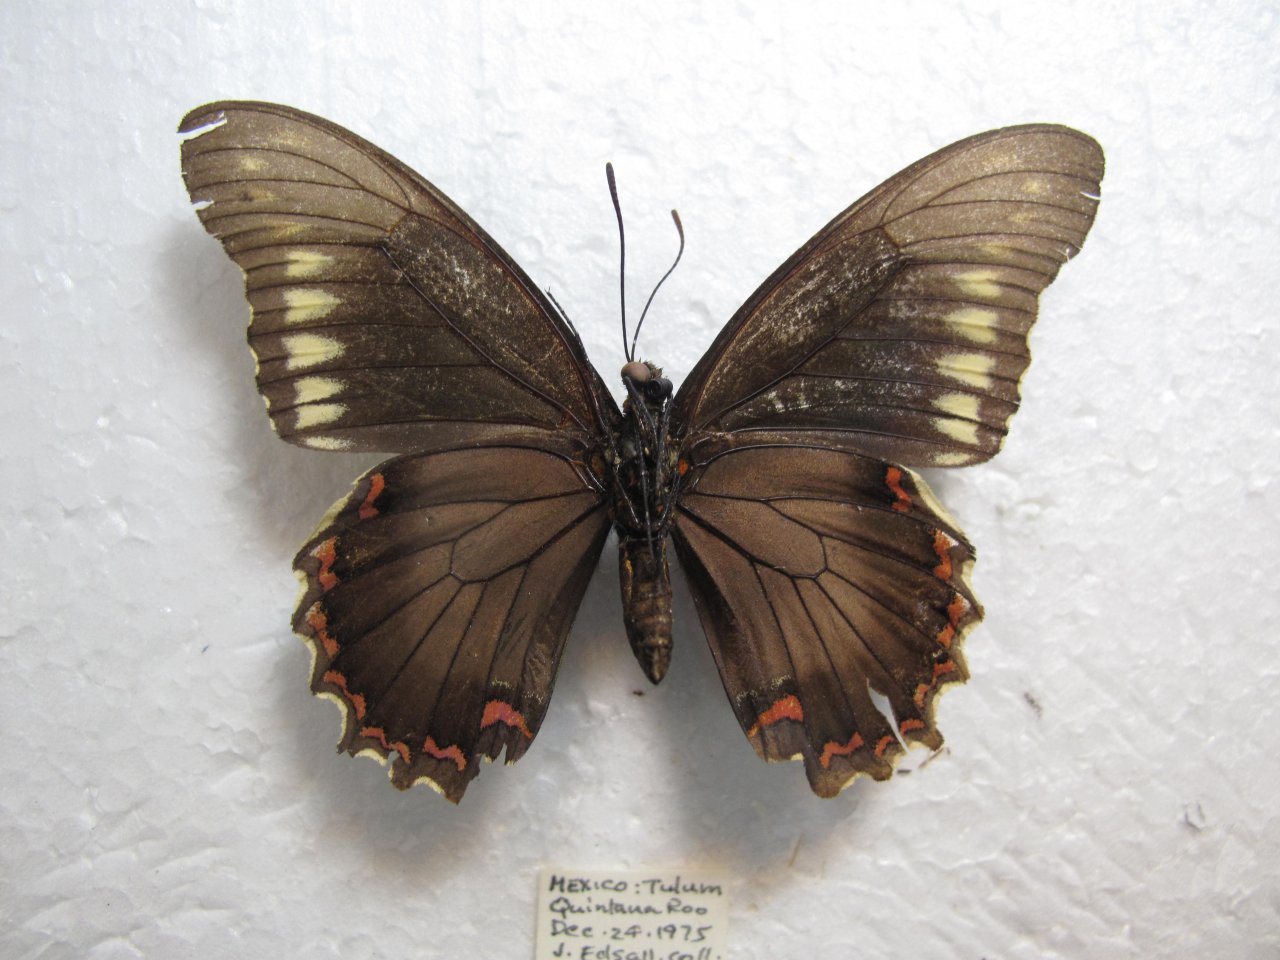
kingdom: Animalia
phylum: Arthropoda
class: Insecta
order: Lepidoptera
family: Papilionidae
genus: Battus
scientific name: Battus polydamas
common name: Polydamas Swallowtail
